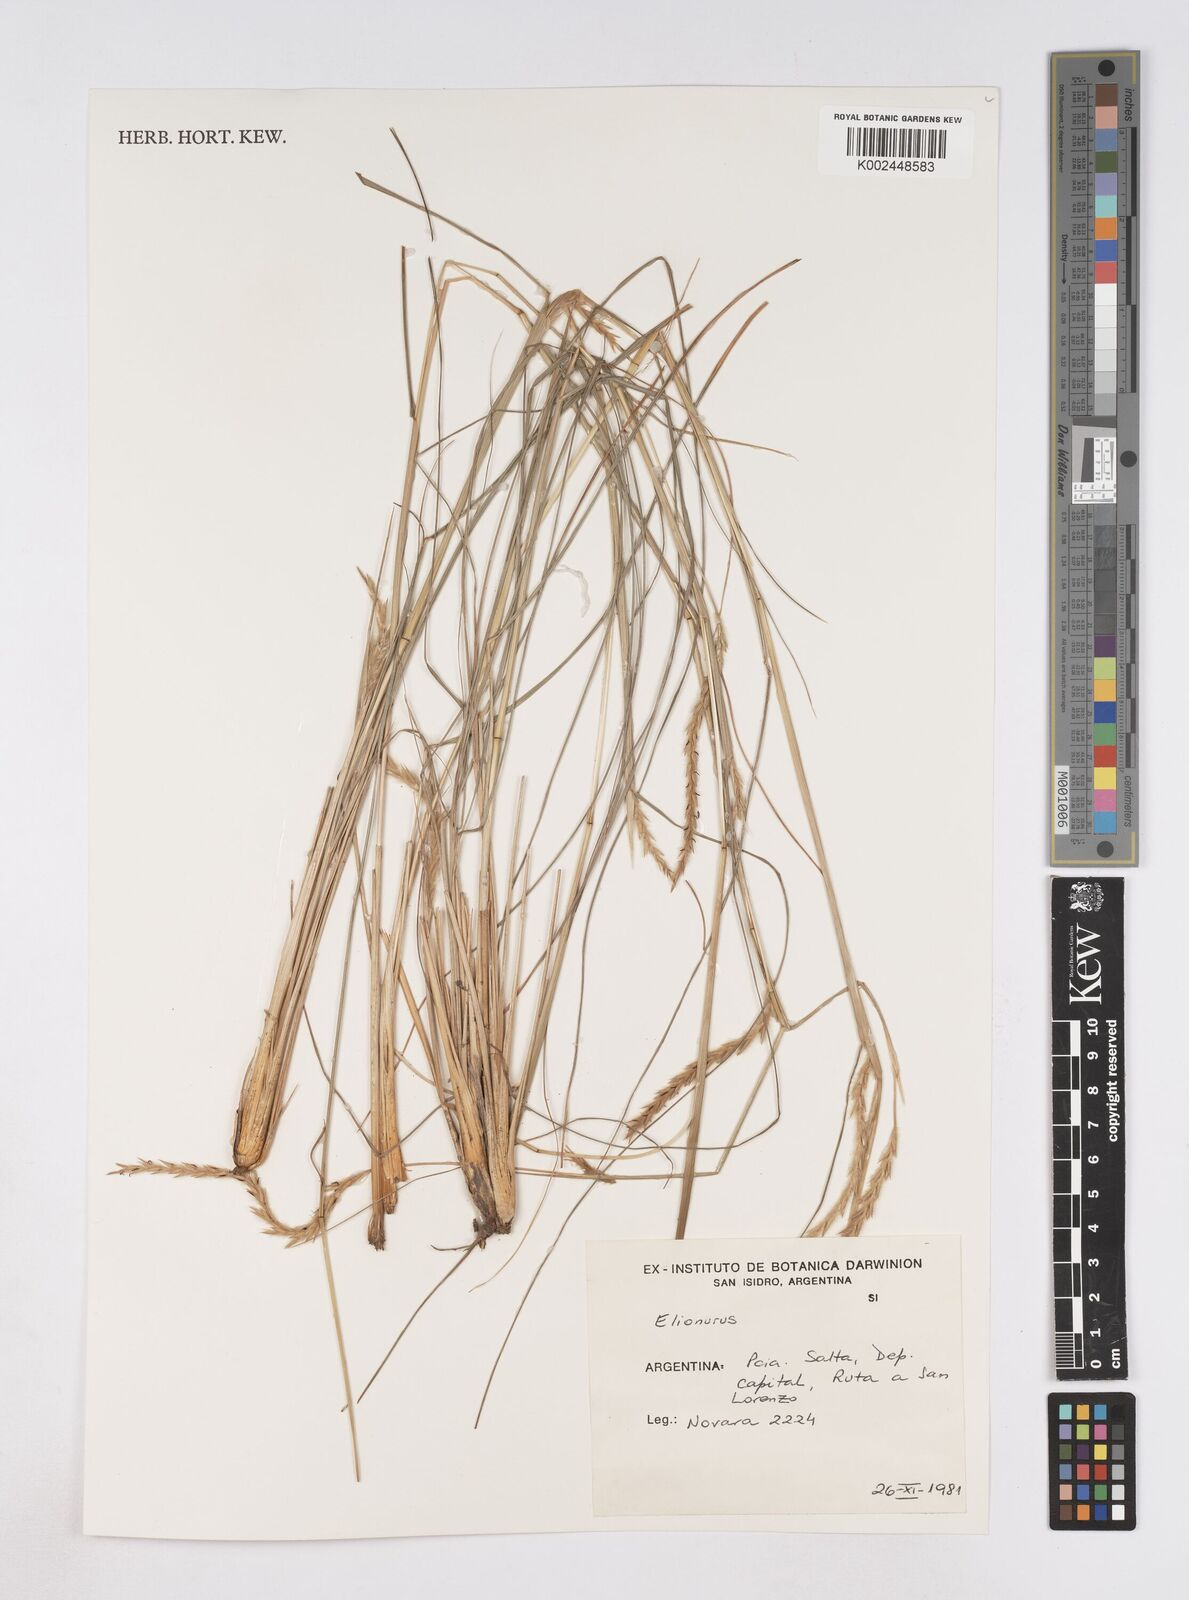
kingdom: Plantae
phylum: Tracheophyta
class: Liliopsida
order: Poales
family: Poaceae
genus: Elionurus
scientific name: Elionurus muticus
